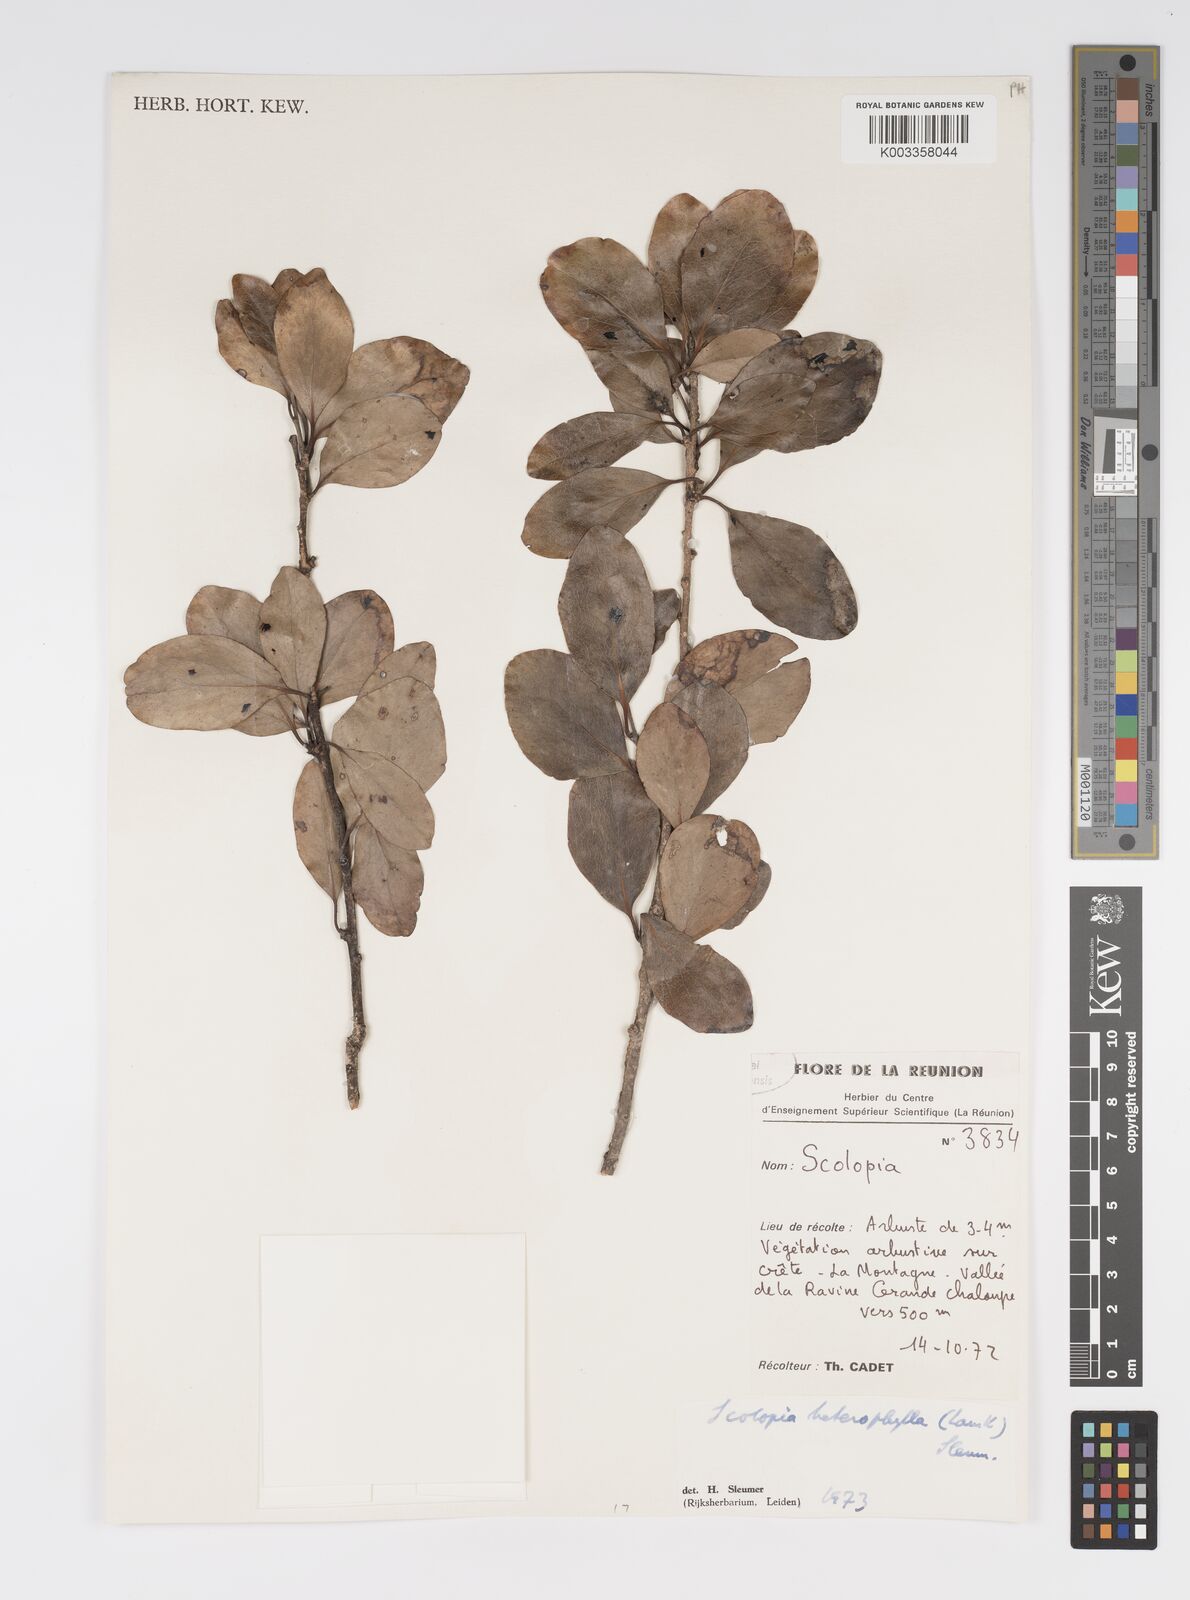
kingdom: Plantae
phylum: Tracheophyta
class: Magnoliopsida
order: Malpighiales
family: Salicaceae
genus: Scolopia
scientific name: Scolopia heterophylla
